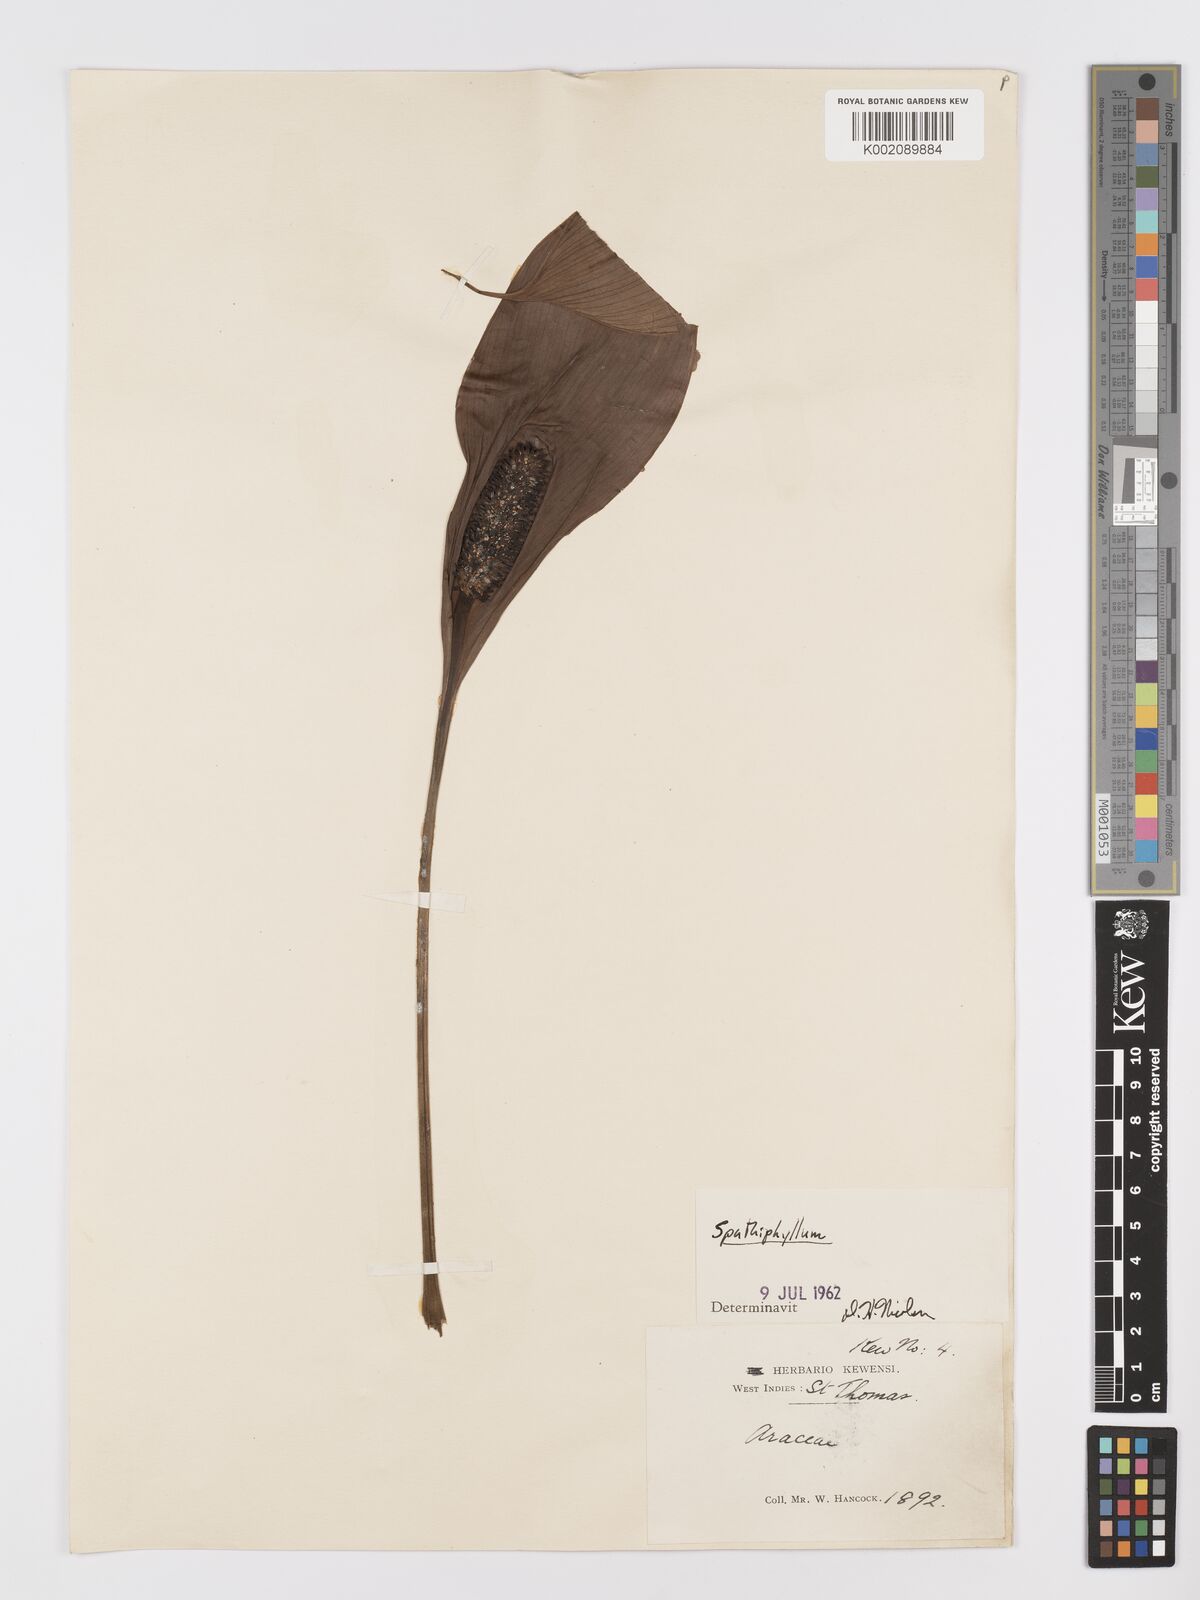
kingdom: Plantae
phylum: Tracheophyta
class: Liliopsida
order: Alismatales
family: Araceae
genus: Spathiphyllum
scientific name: Spathiphyllum
